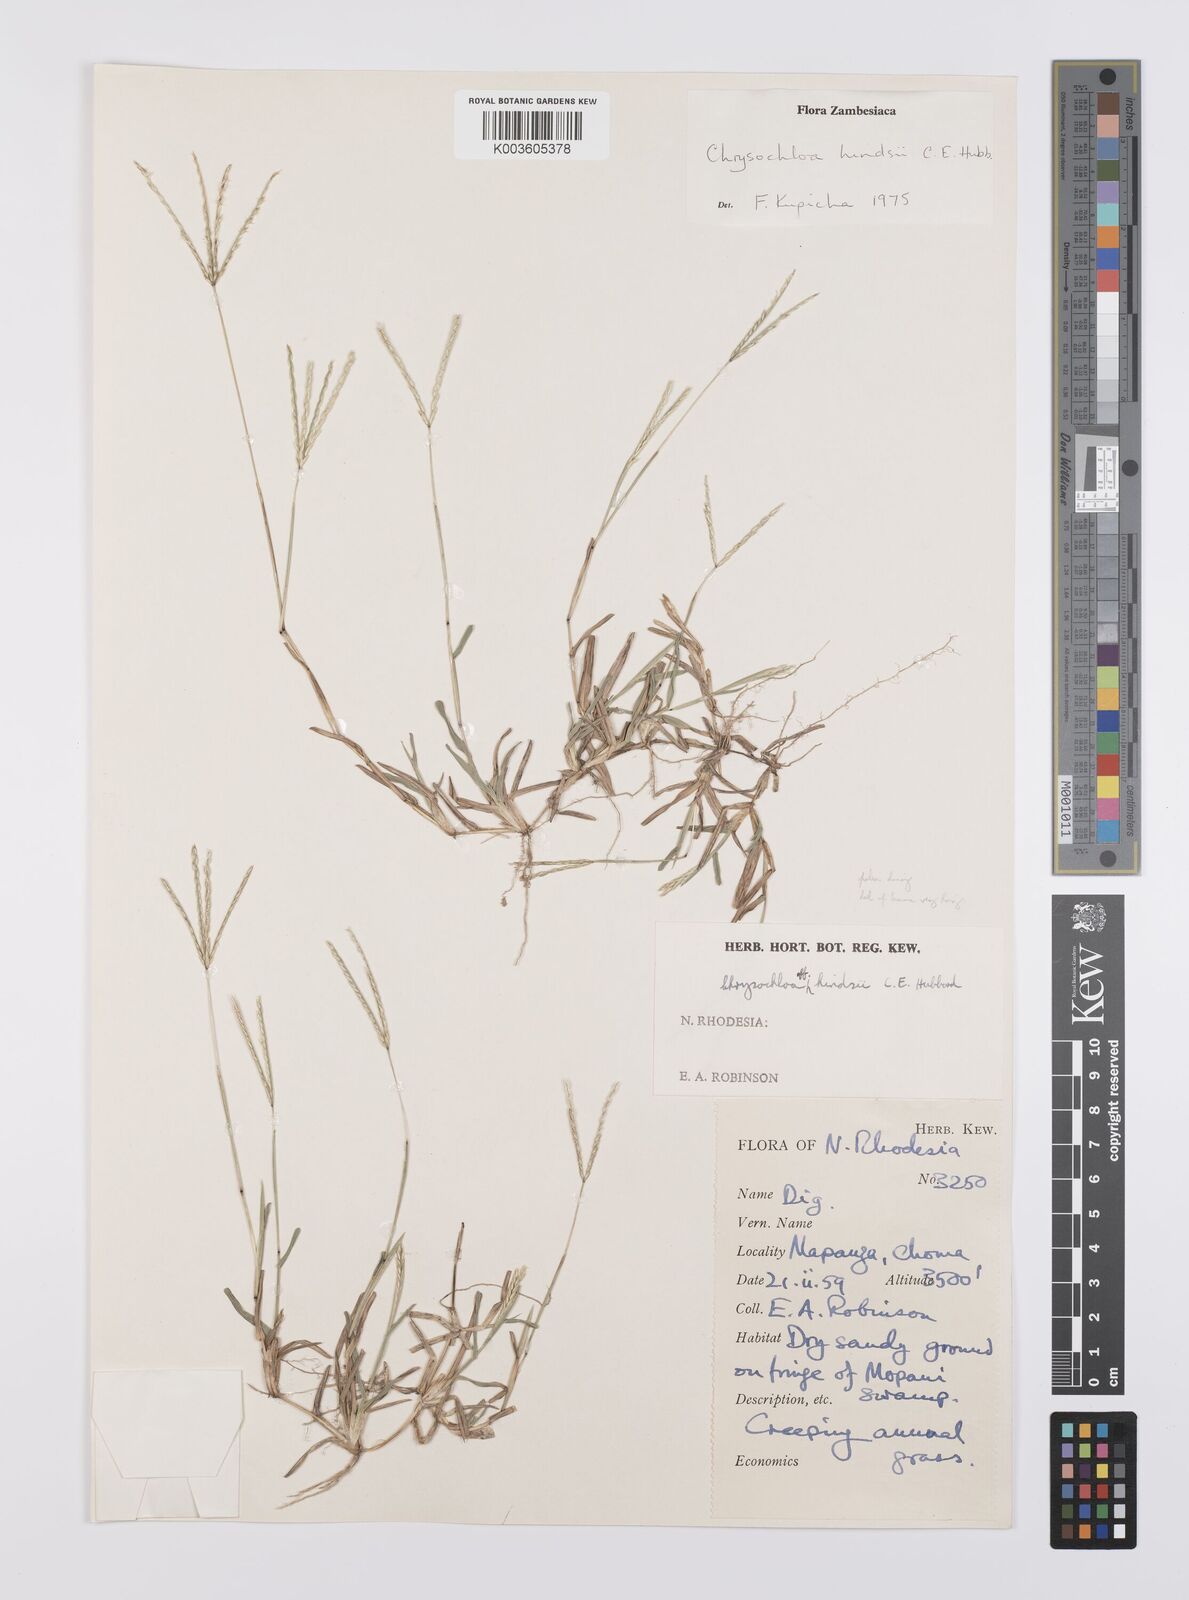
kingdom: Plantae
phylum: Tracheophyta
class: Liliopsida
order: Poales
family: Poaceae
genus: Chrysochloa
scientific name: Chrysochloa hindsii
